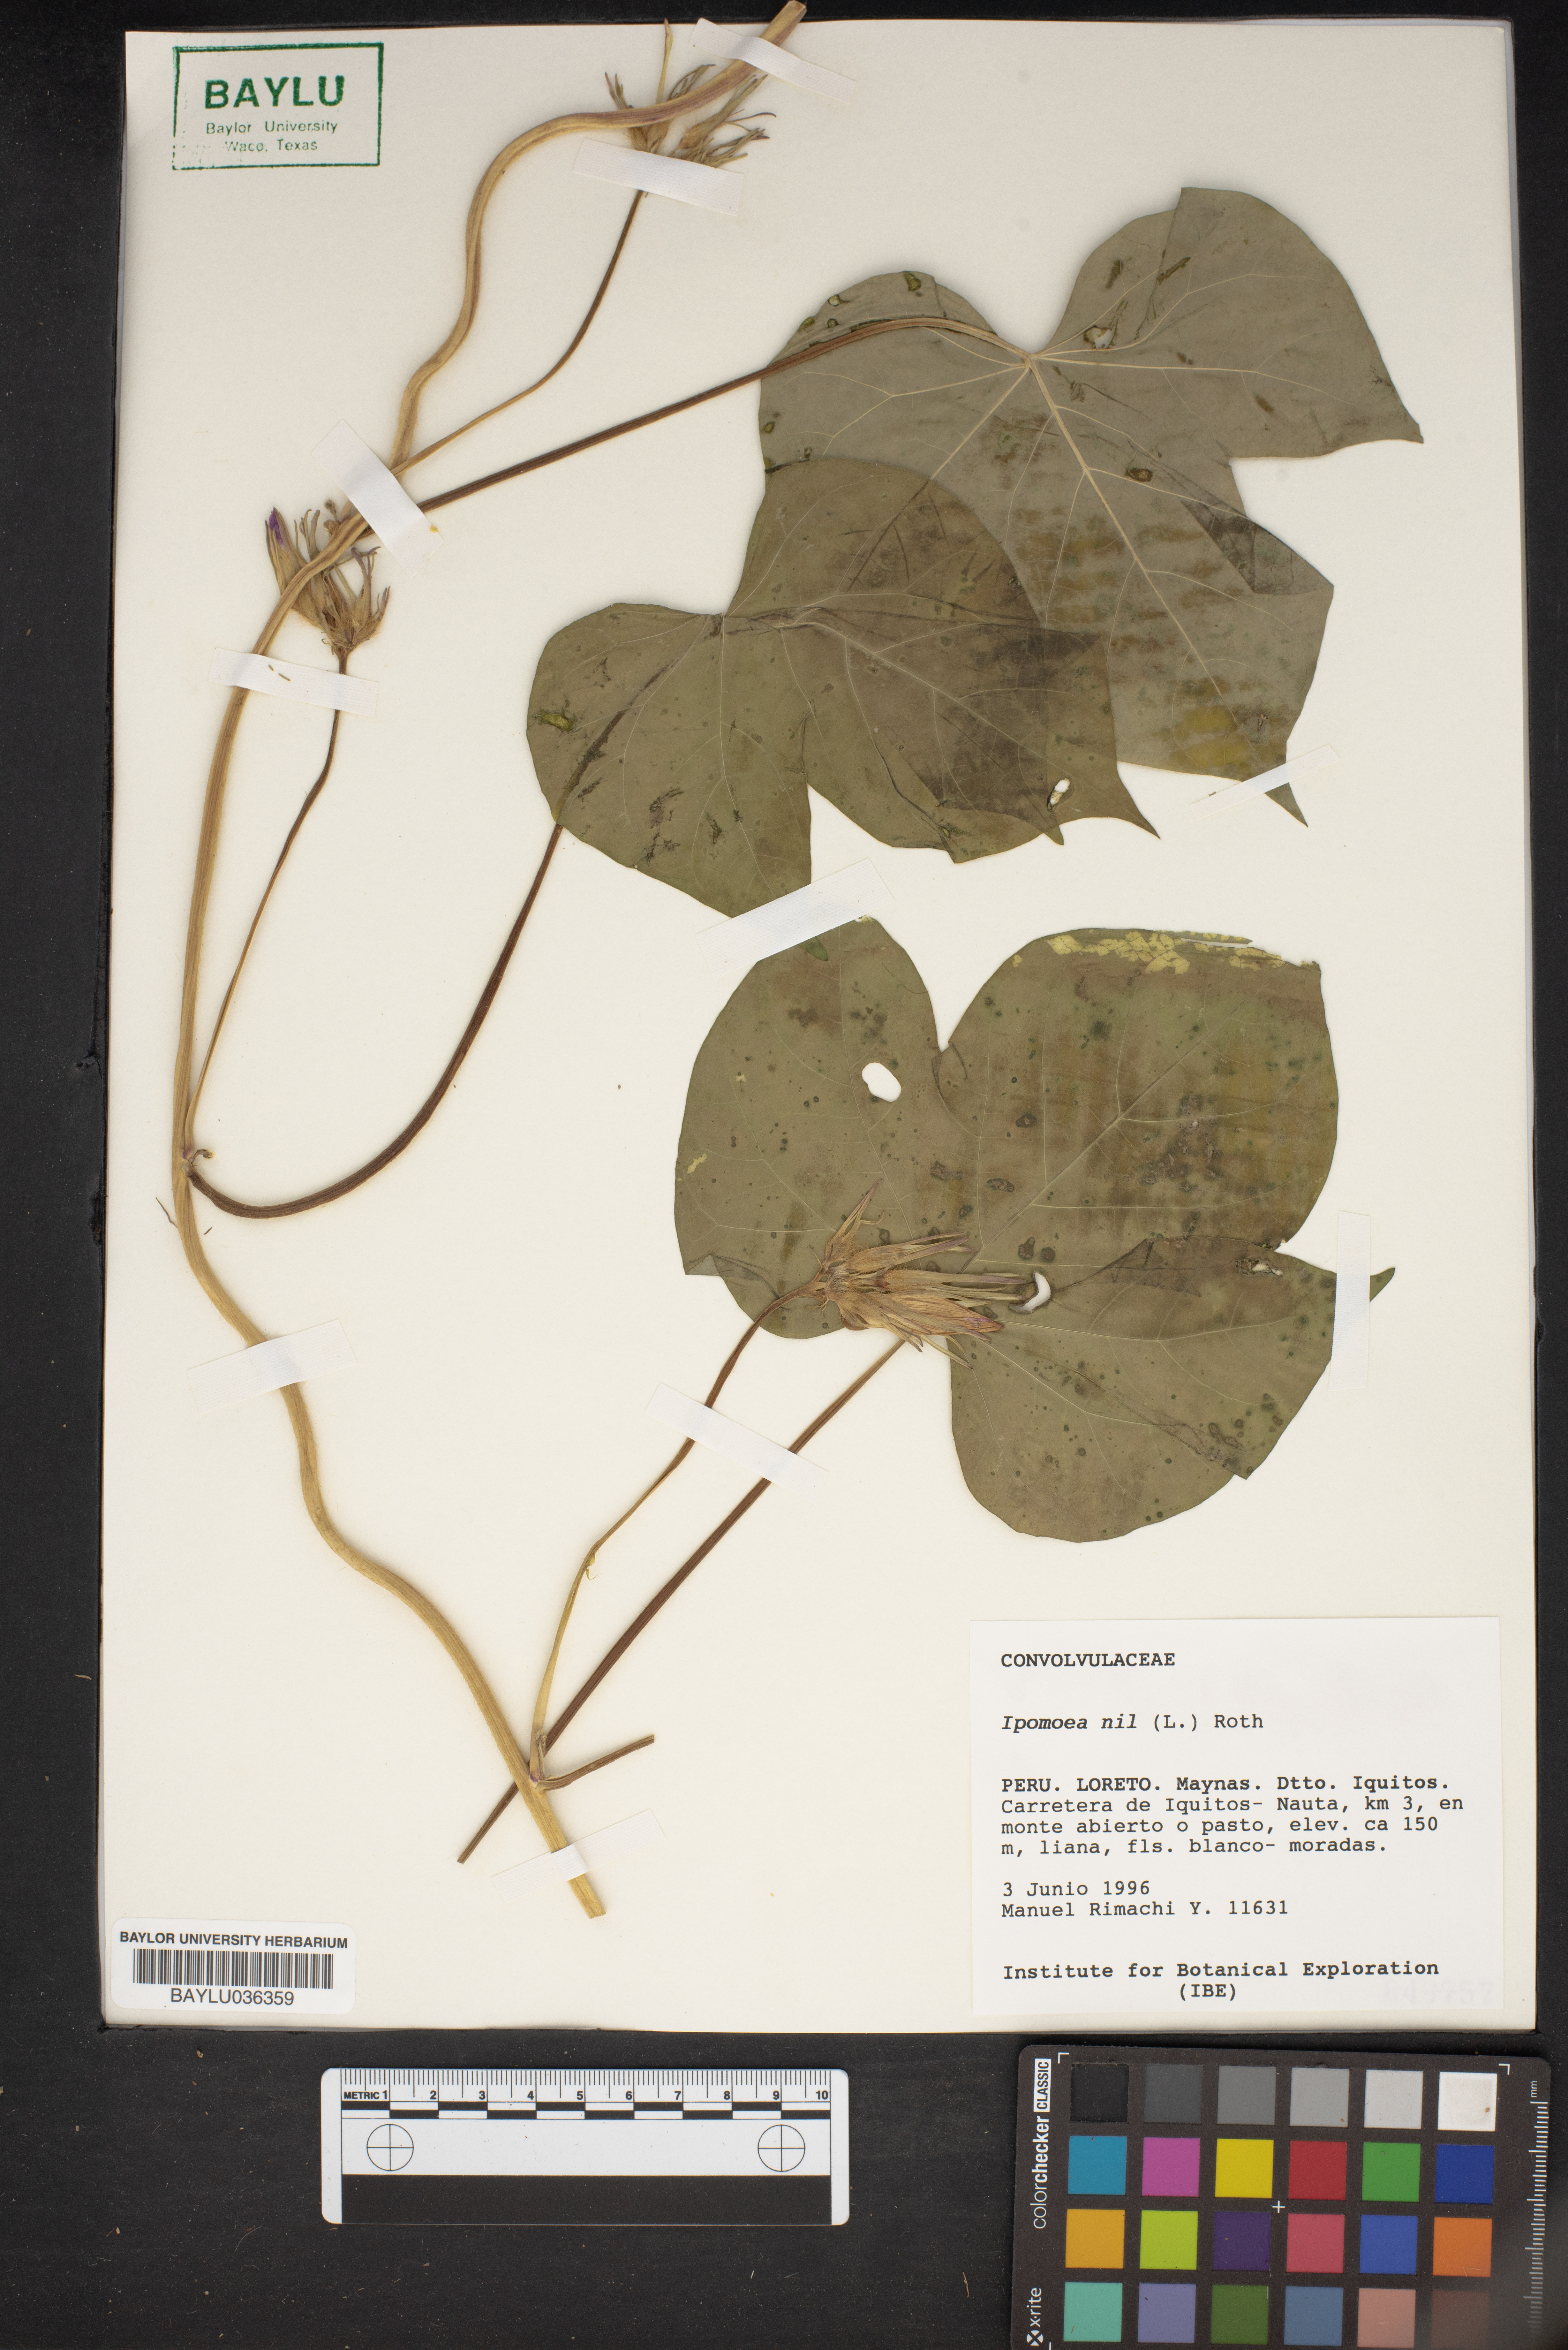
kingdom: Plantae
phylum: Tracheophyta
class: Magnoliopsida
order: Solanales
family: Convolvulaceae
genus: Ipomoea
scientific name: Ipomoea nil
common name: Japanese morning-glory
